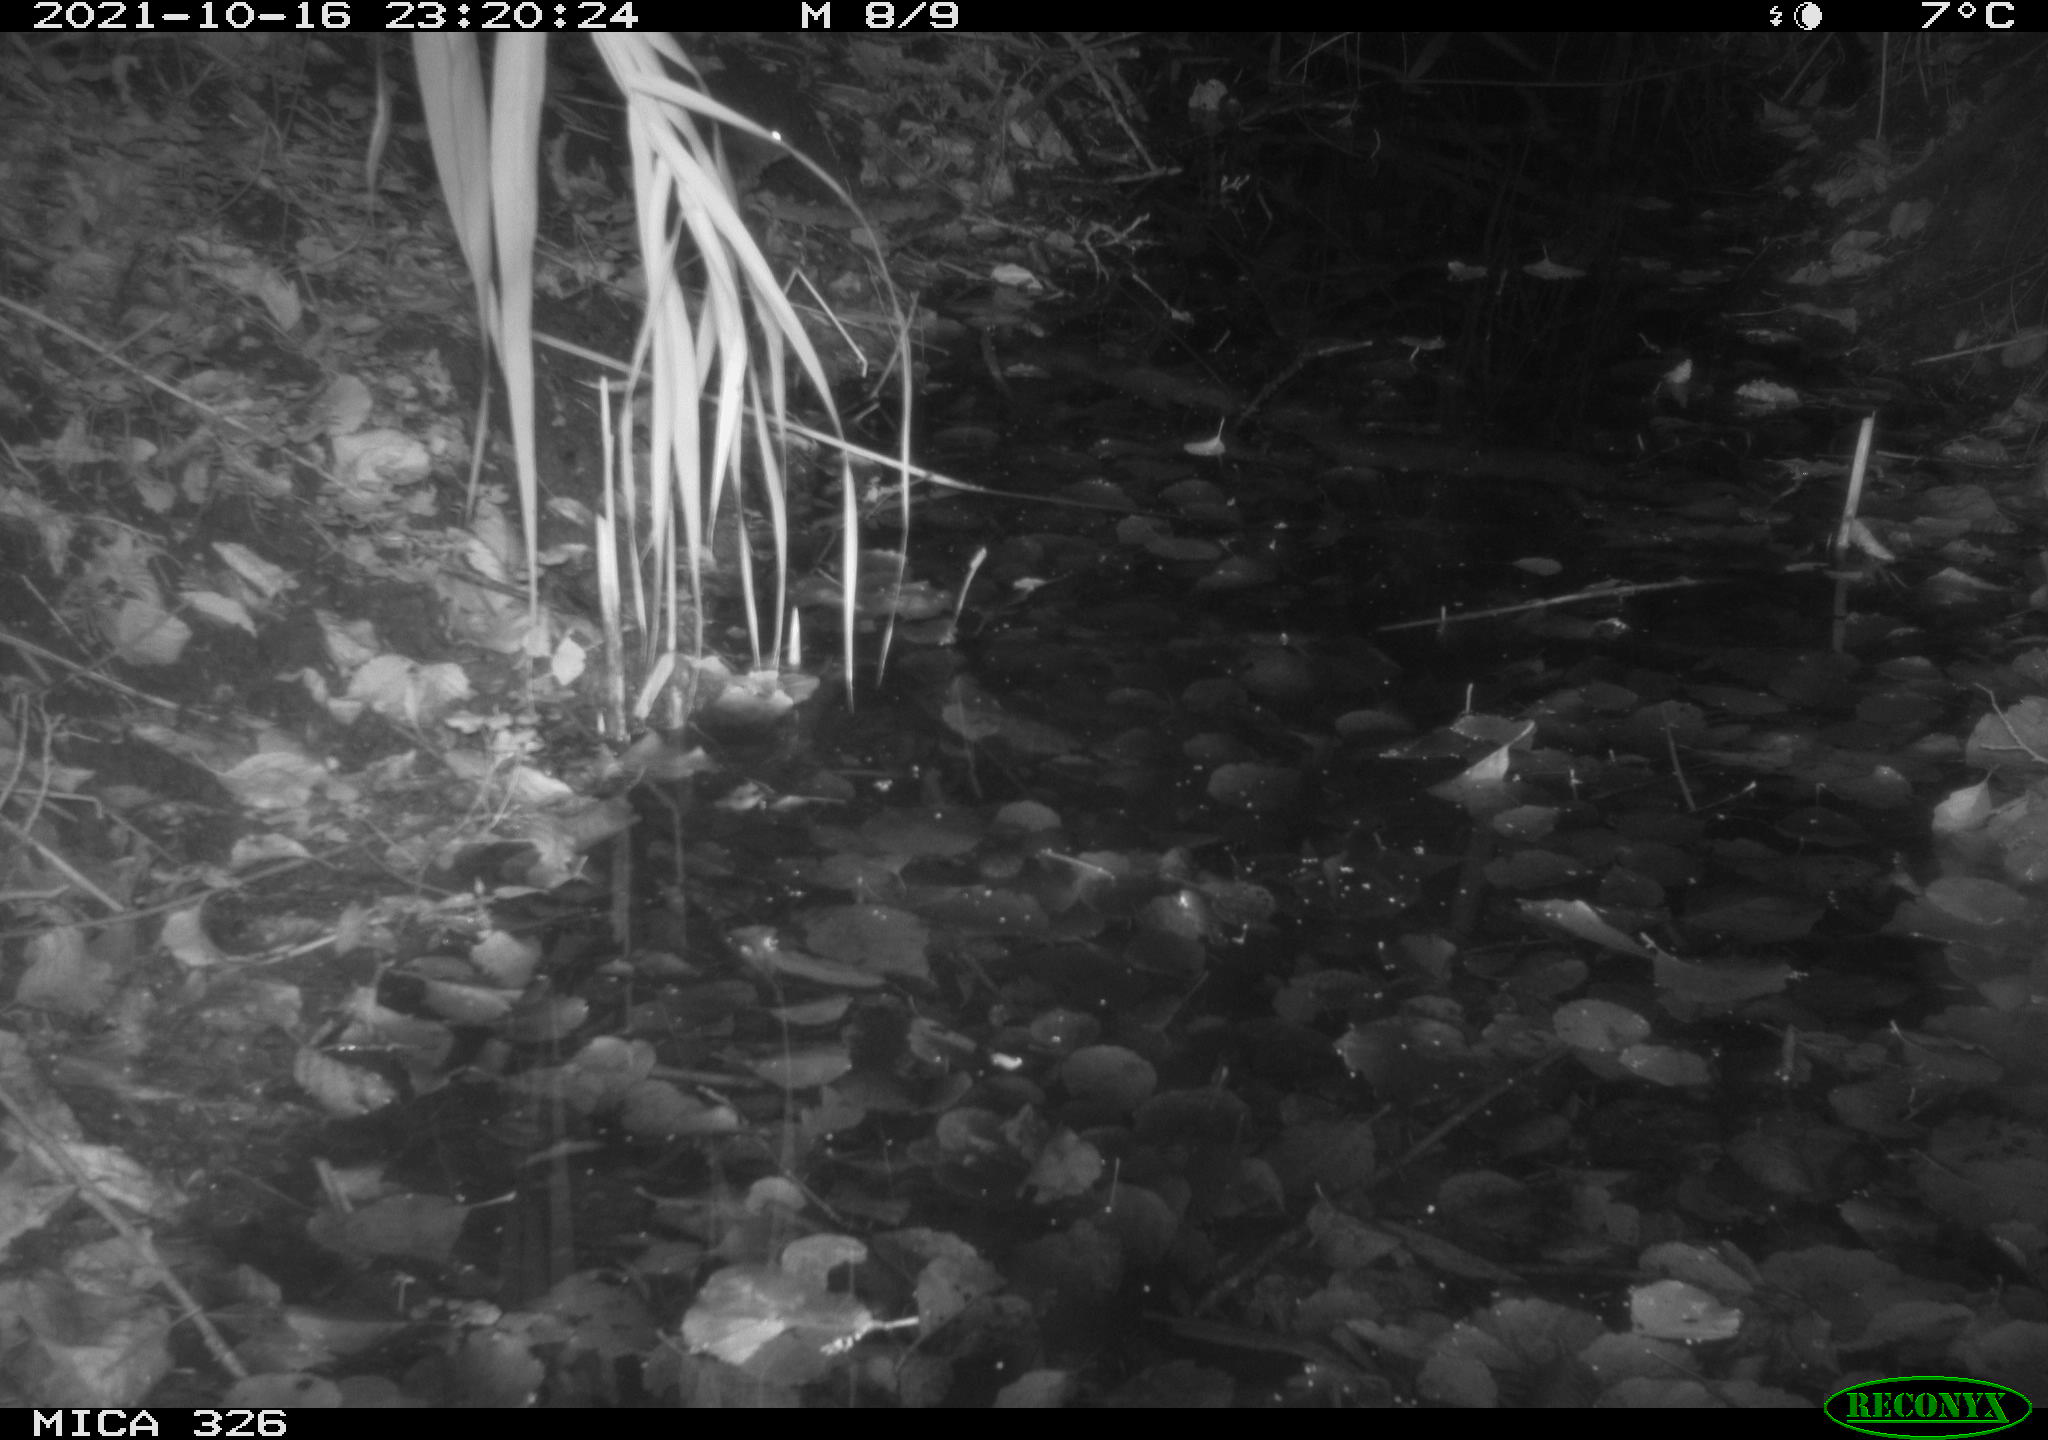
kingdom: Animalia
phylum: Chordata
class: Mammalia
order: Rodentia
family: Muridae
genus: Rattus
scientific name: Rattus norvegicus
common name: Brown rat
